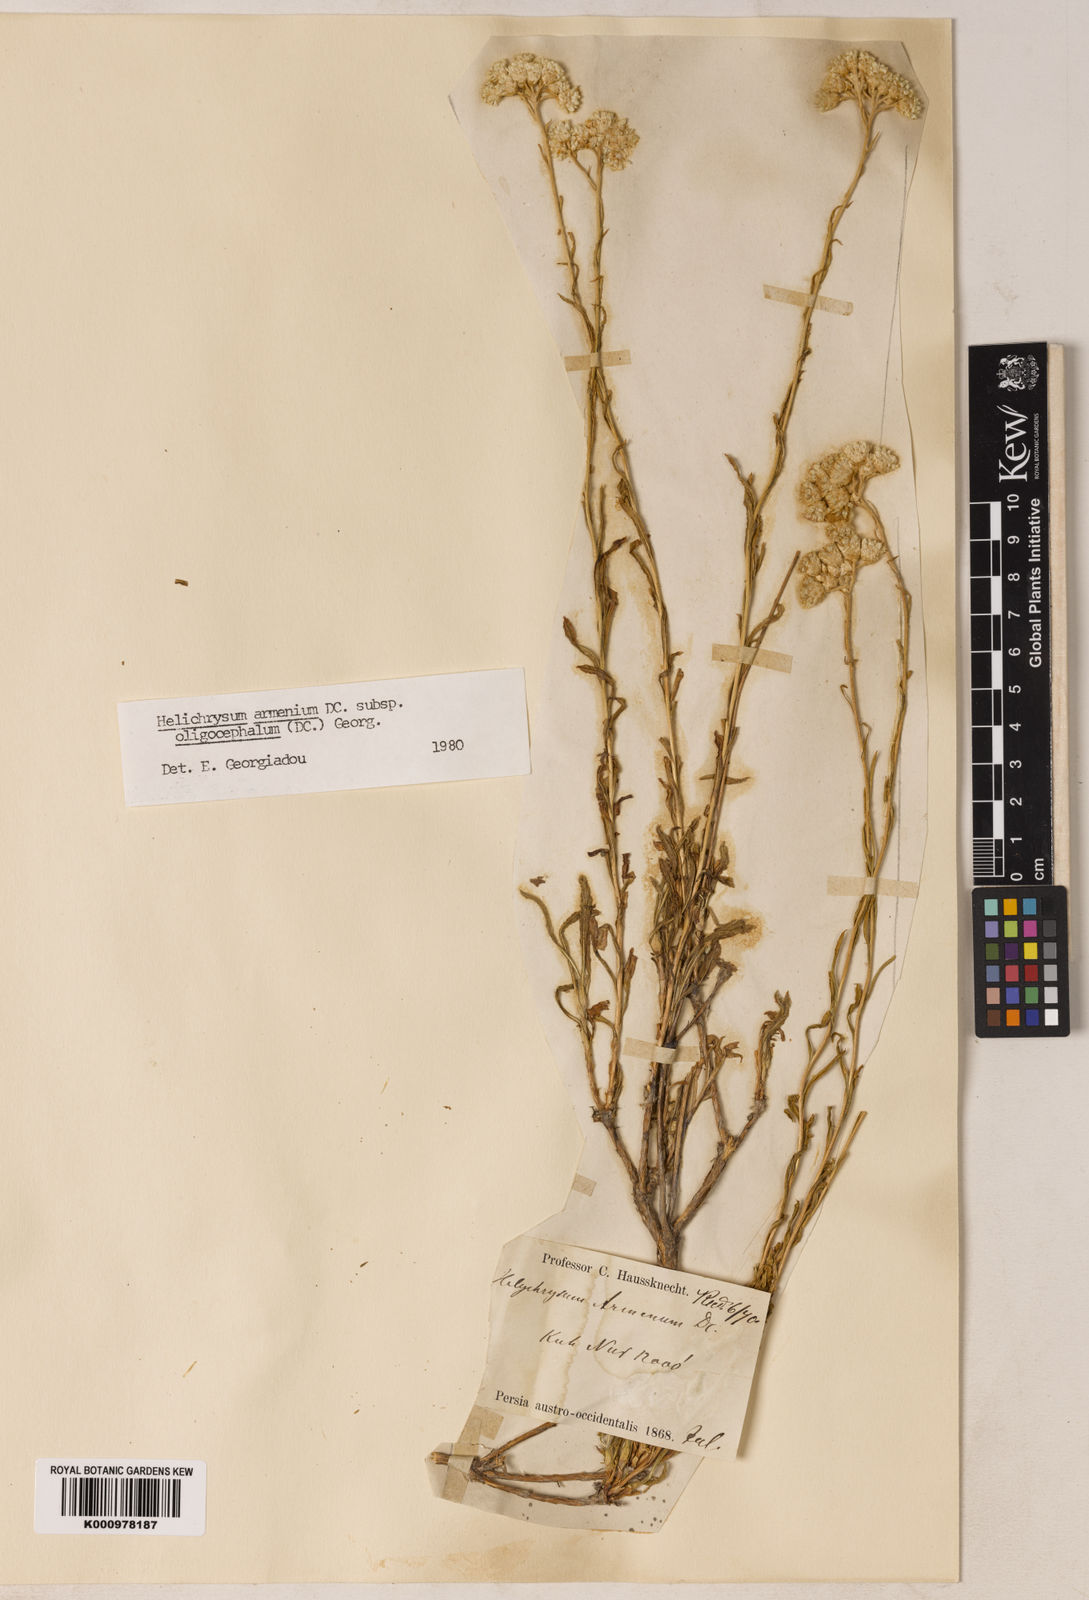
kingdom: Plantae
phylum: Tracheophyta
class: Magnoliopsida
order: Asterales
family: Asteraceae
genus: Helichrysum
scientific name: Helichrysum armenium
